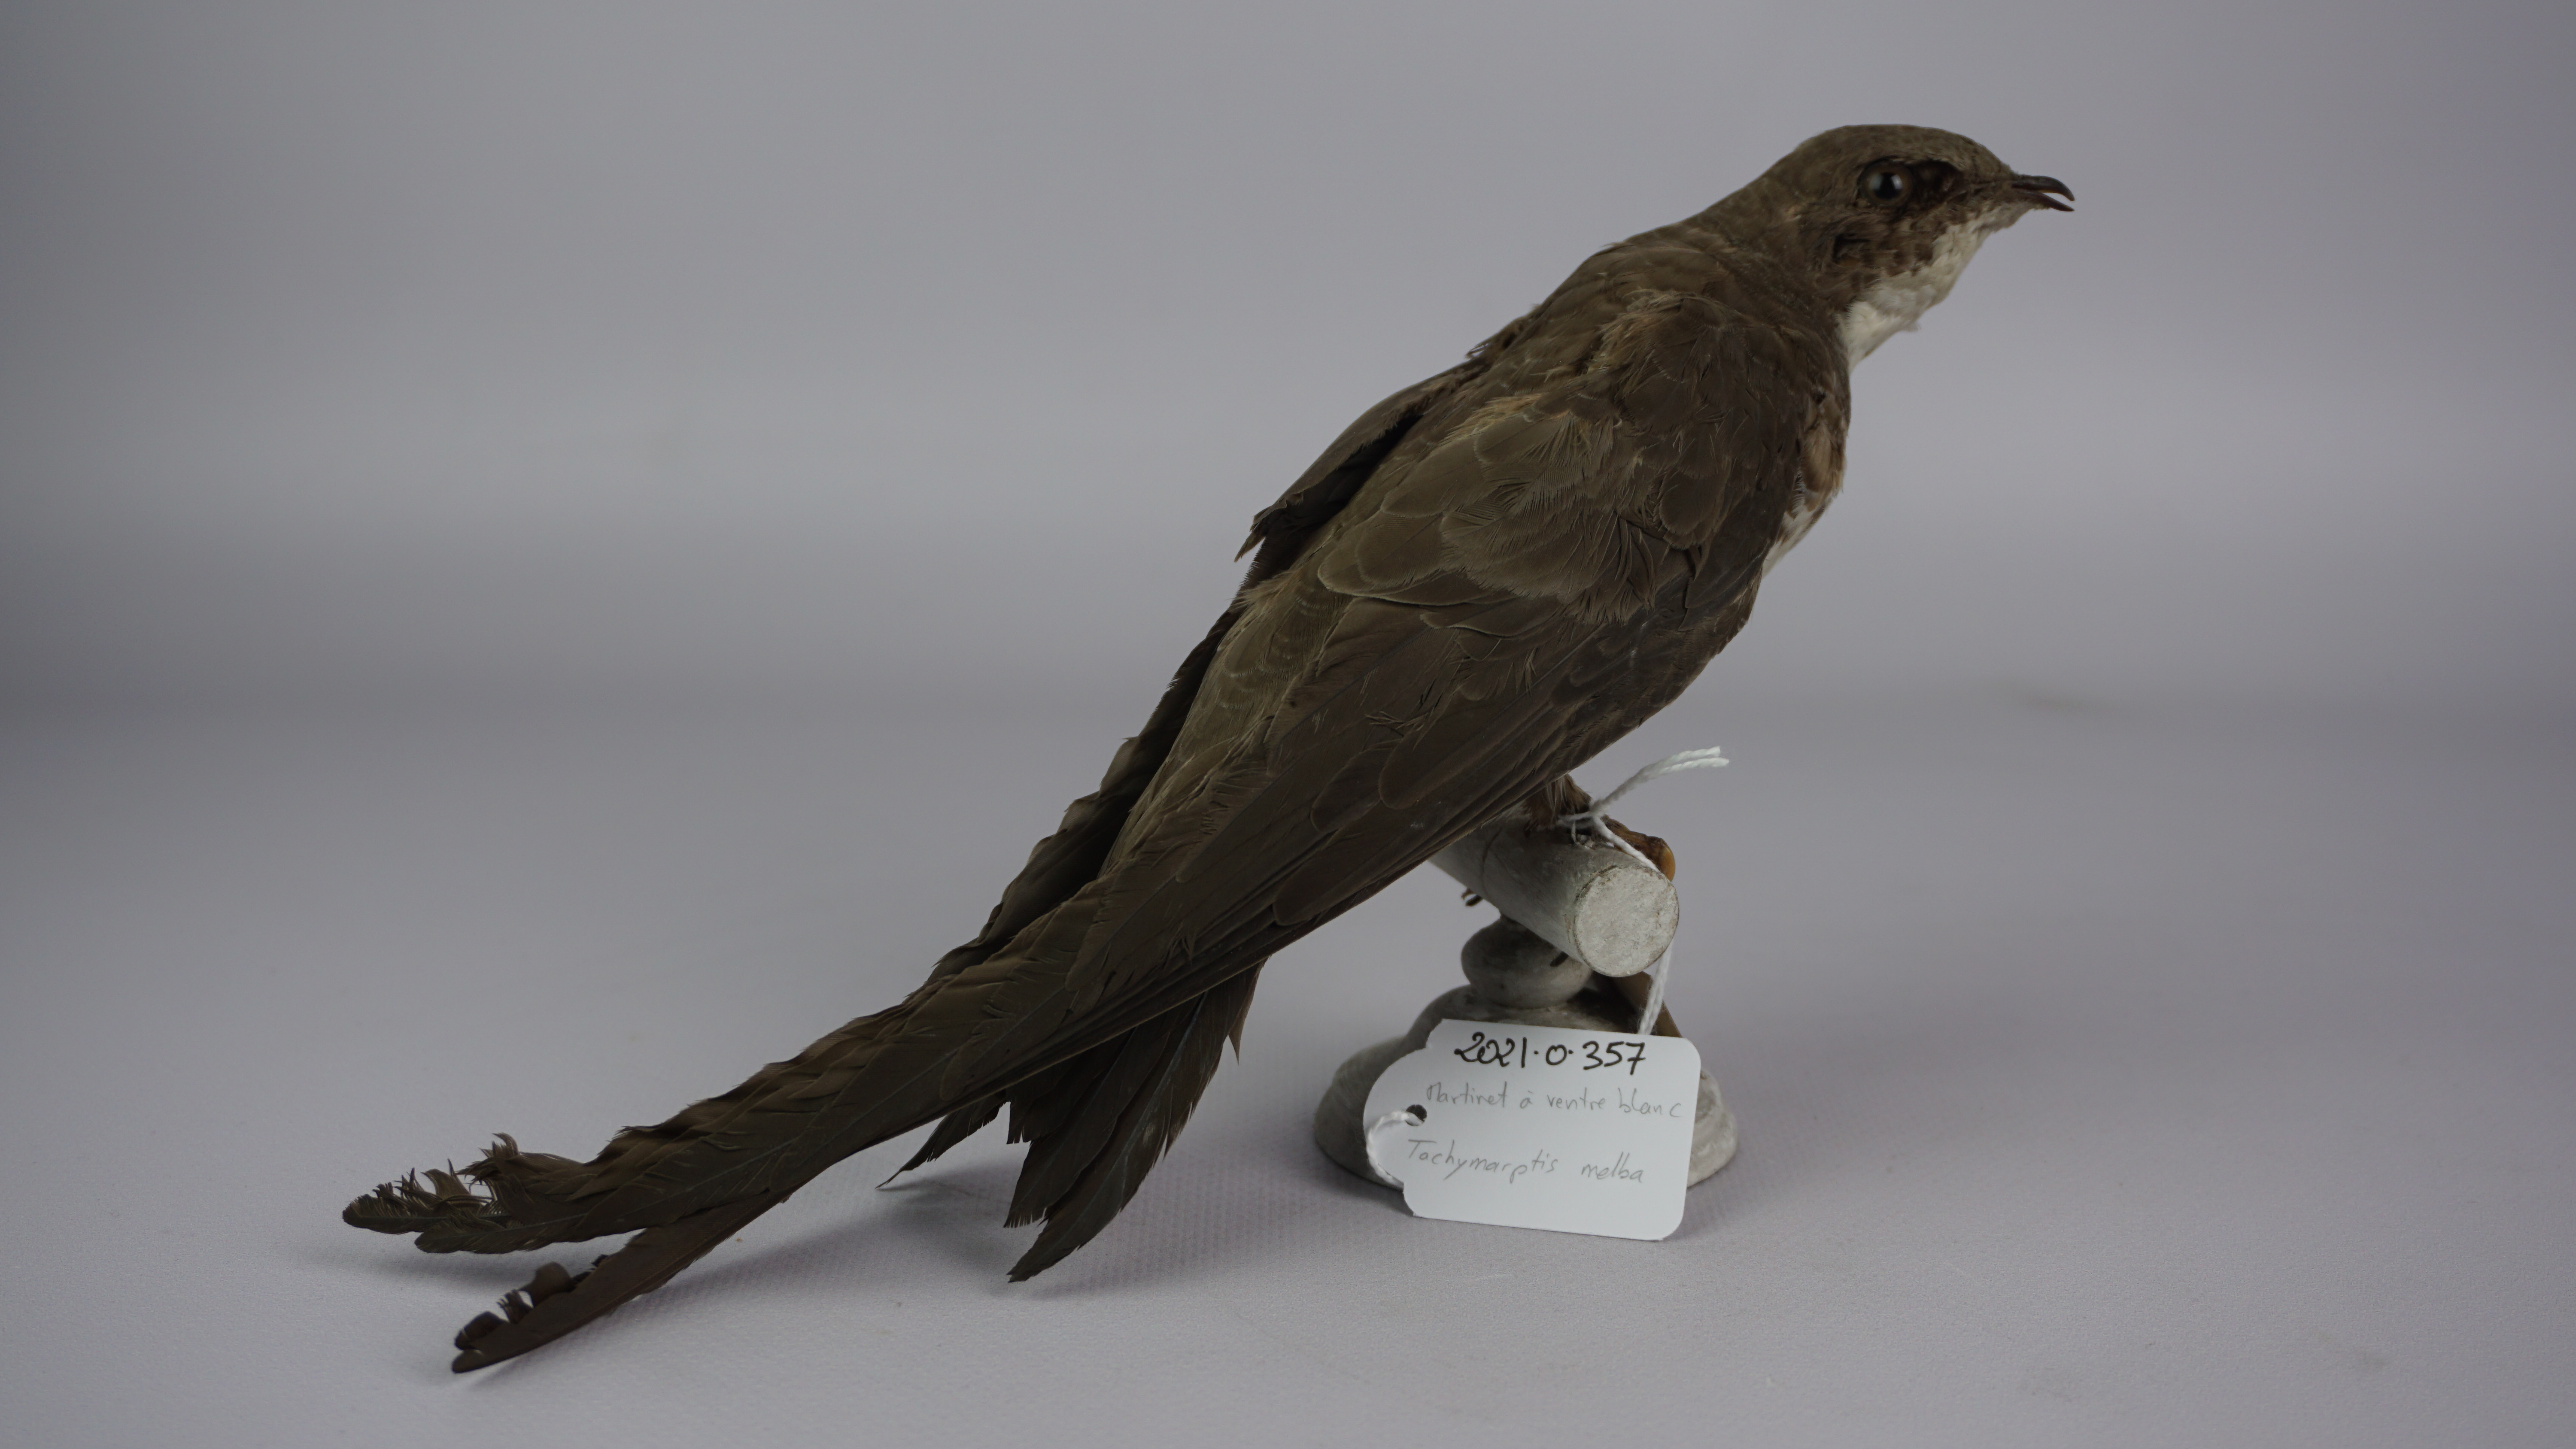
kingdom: Animalia
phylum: Chordata
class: Aves
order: Apodiformes
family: Apodidae
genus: Tachymarptis
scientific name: Tachymarptis melba
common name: Alpine swift
